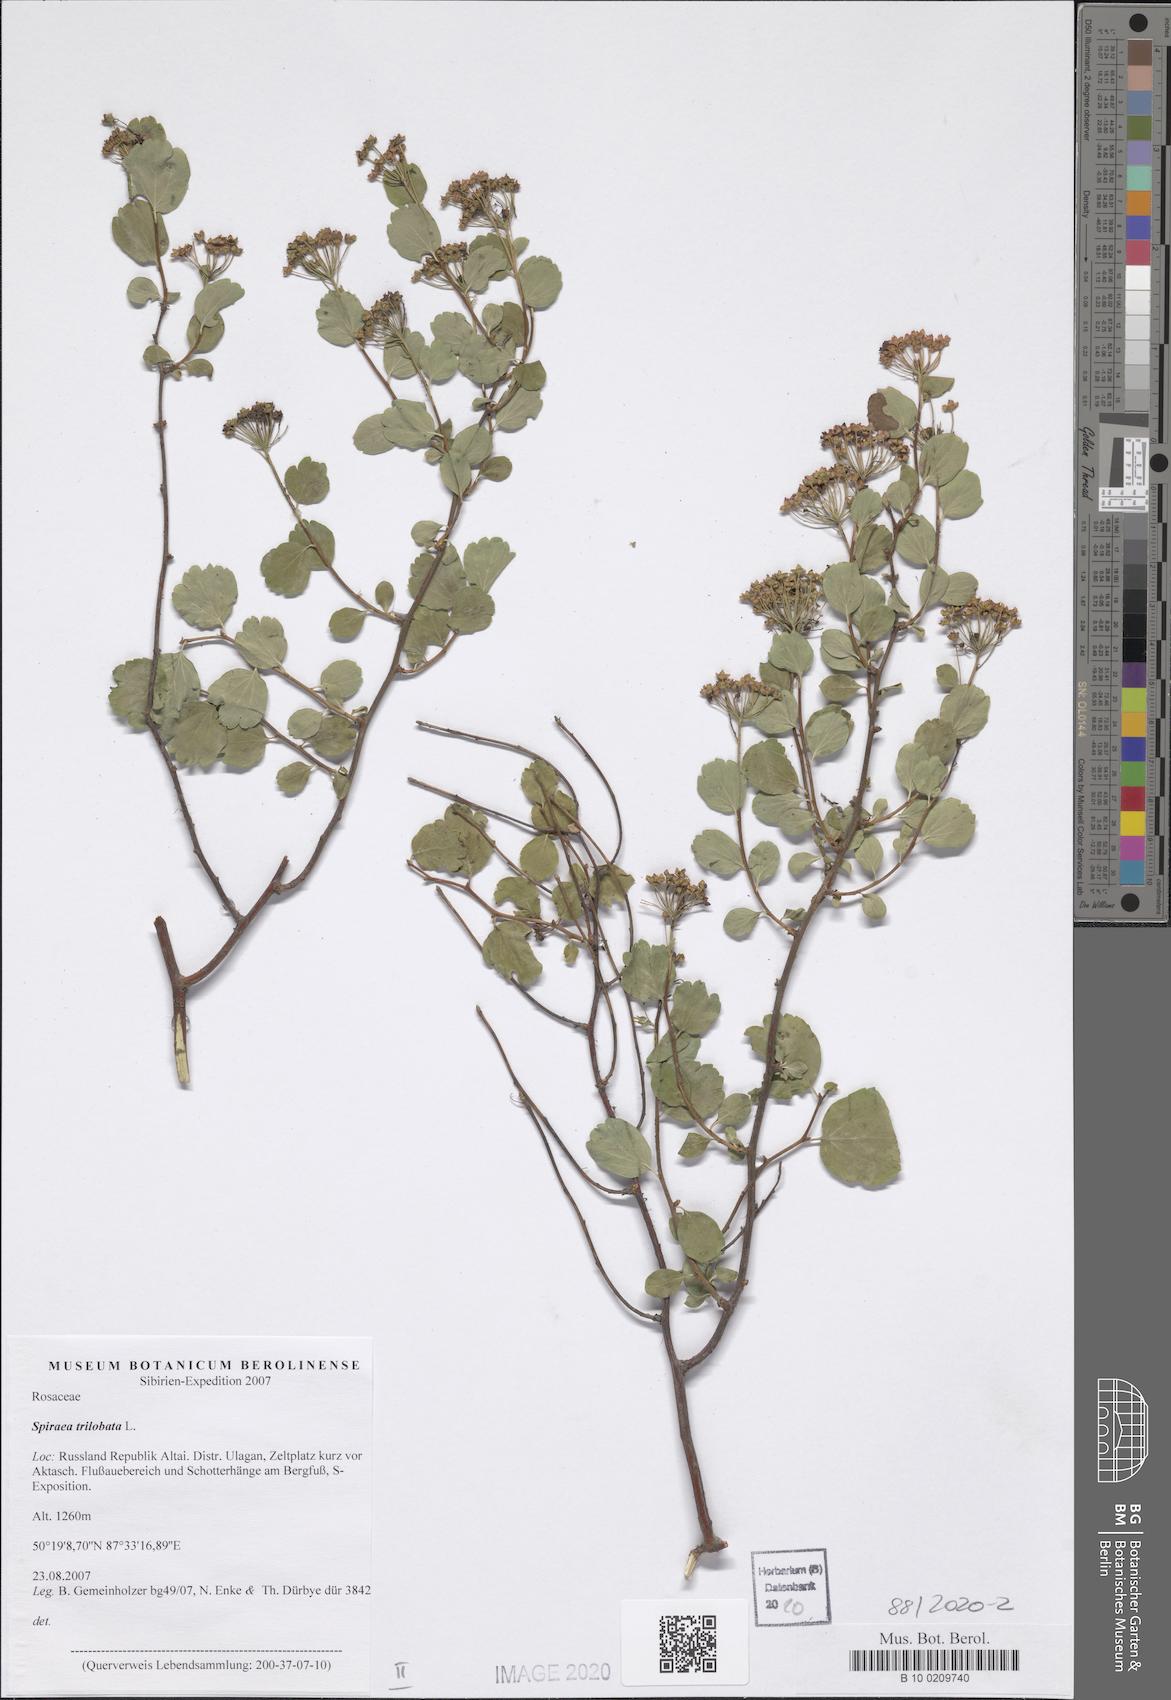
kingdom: Plantae
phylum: Tracheophyta
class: Magnoliopsida
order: Rosales
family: Rosaceae
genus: Spiraea
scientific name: Spiraea trilobata
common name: Asian meadowsweet
